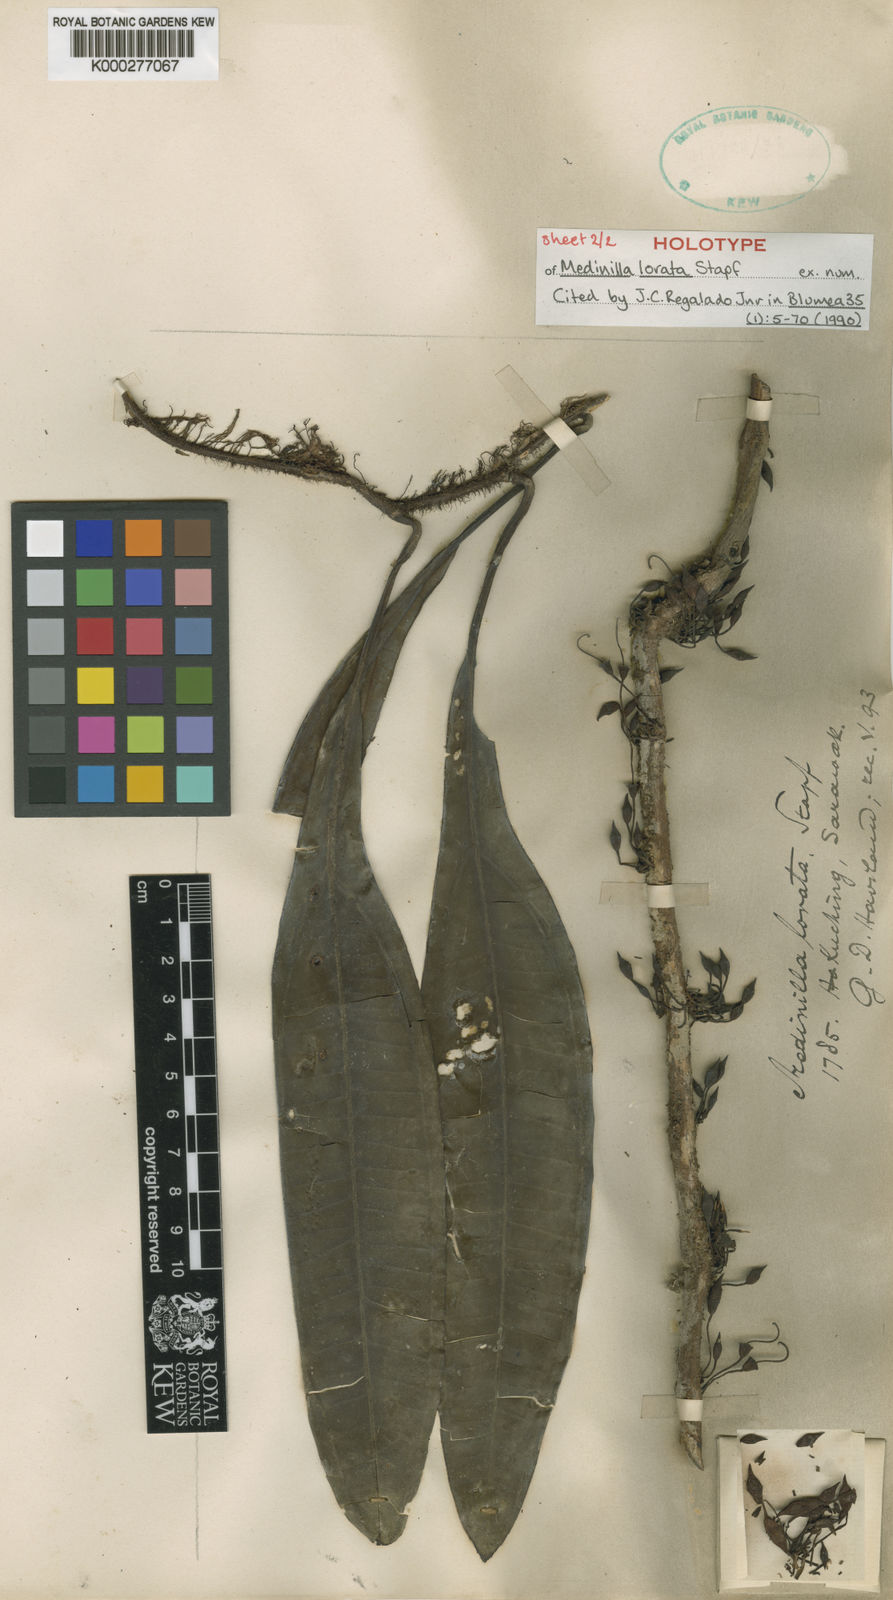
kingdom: Plantae
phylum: Tracheophyta
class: Magnoliopsida
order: Myrtales
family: Melastomataceae
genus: Heteroblemma
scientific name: Heteroblemma loratum
